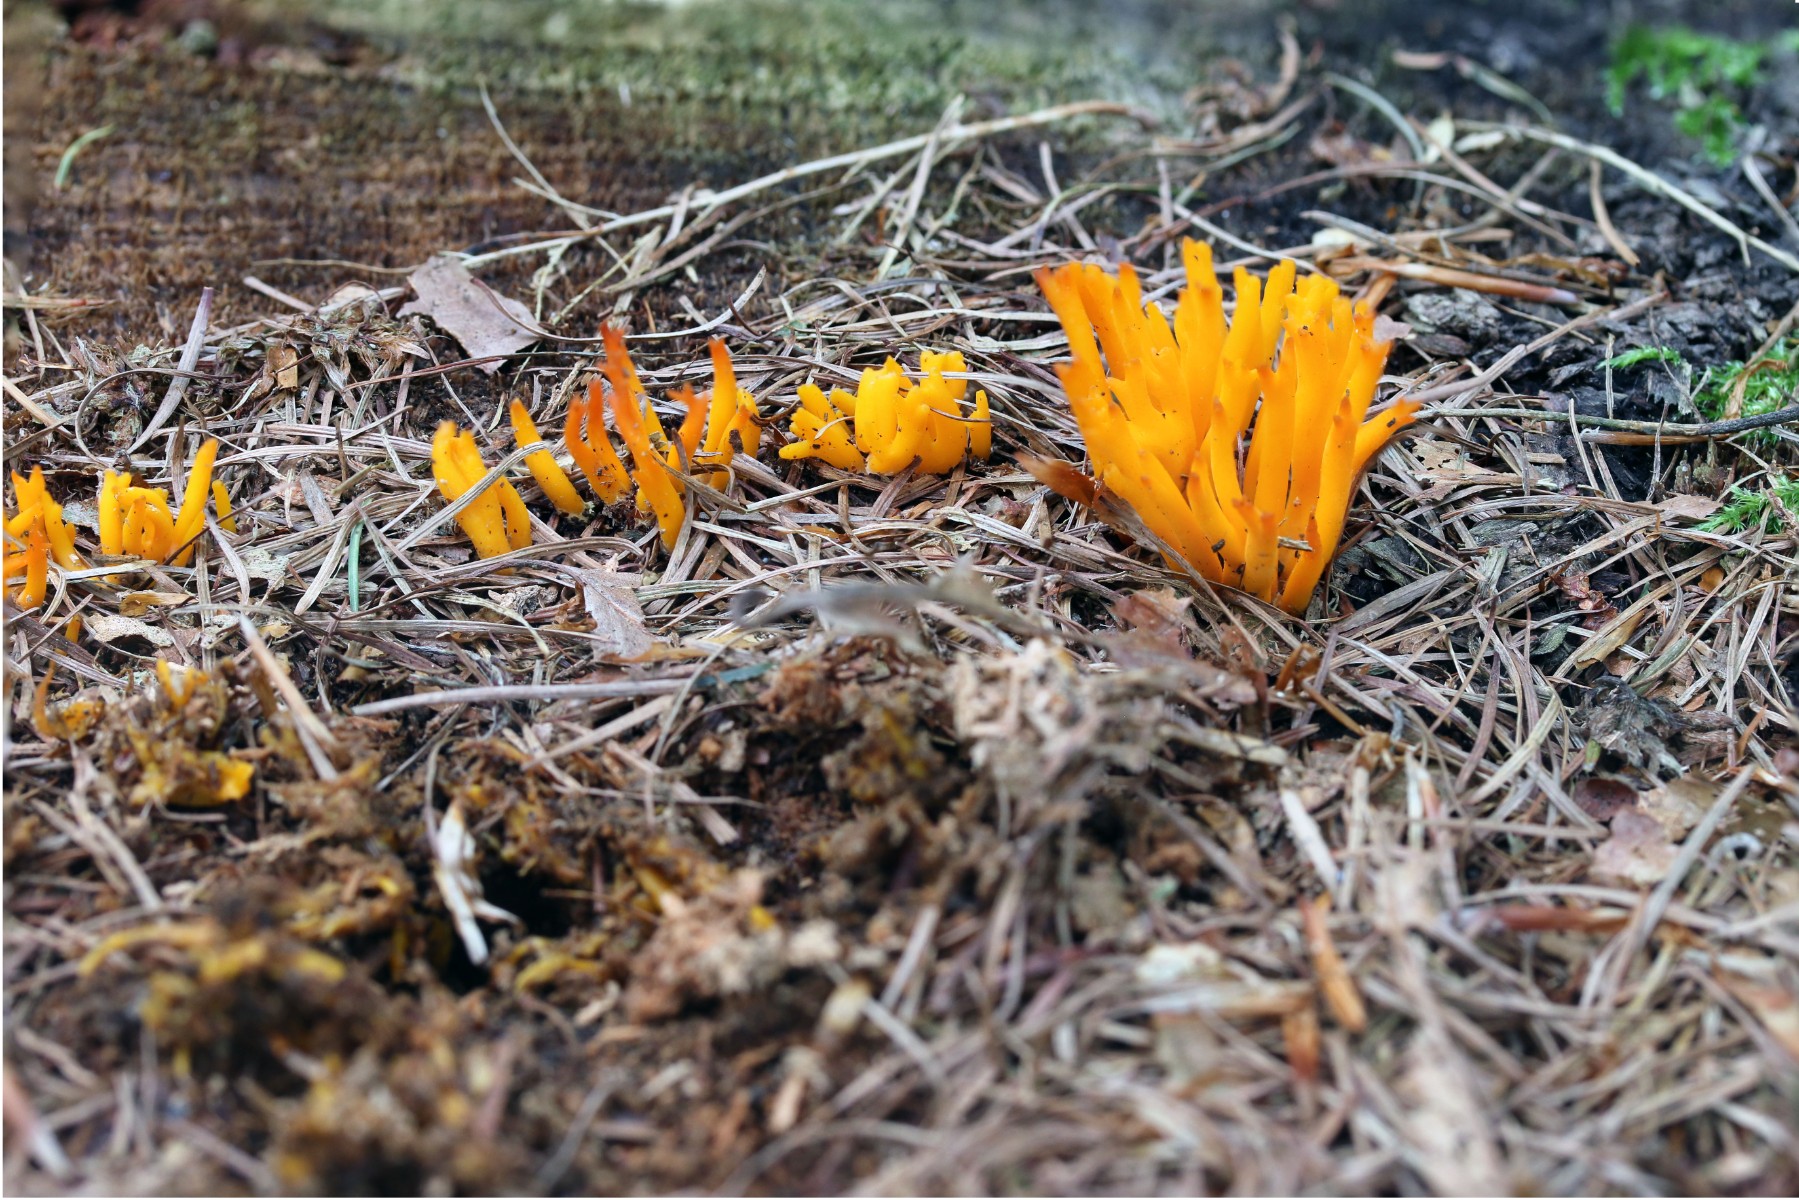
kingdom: Fungi
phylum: Basidiomycota
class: Dacrymycetes
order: Dacrymycetales
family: Dacrymycetaceae
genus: Calocera
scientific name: Calocera viscosa
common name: almindelig guldgaffel
